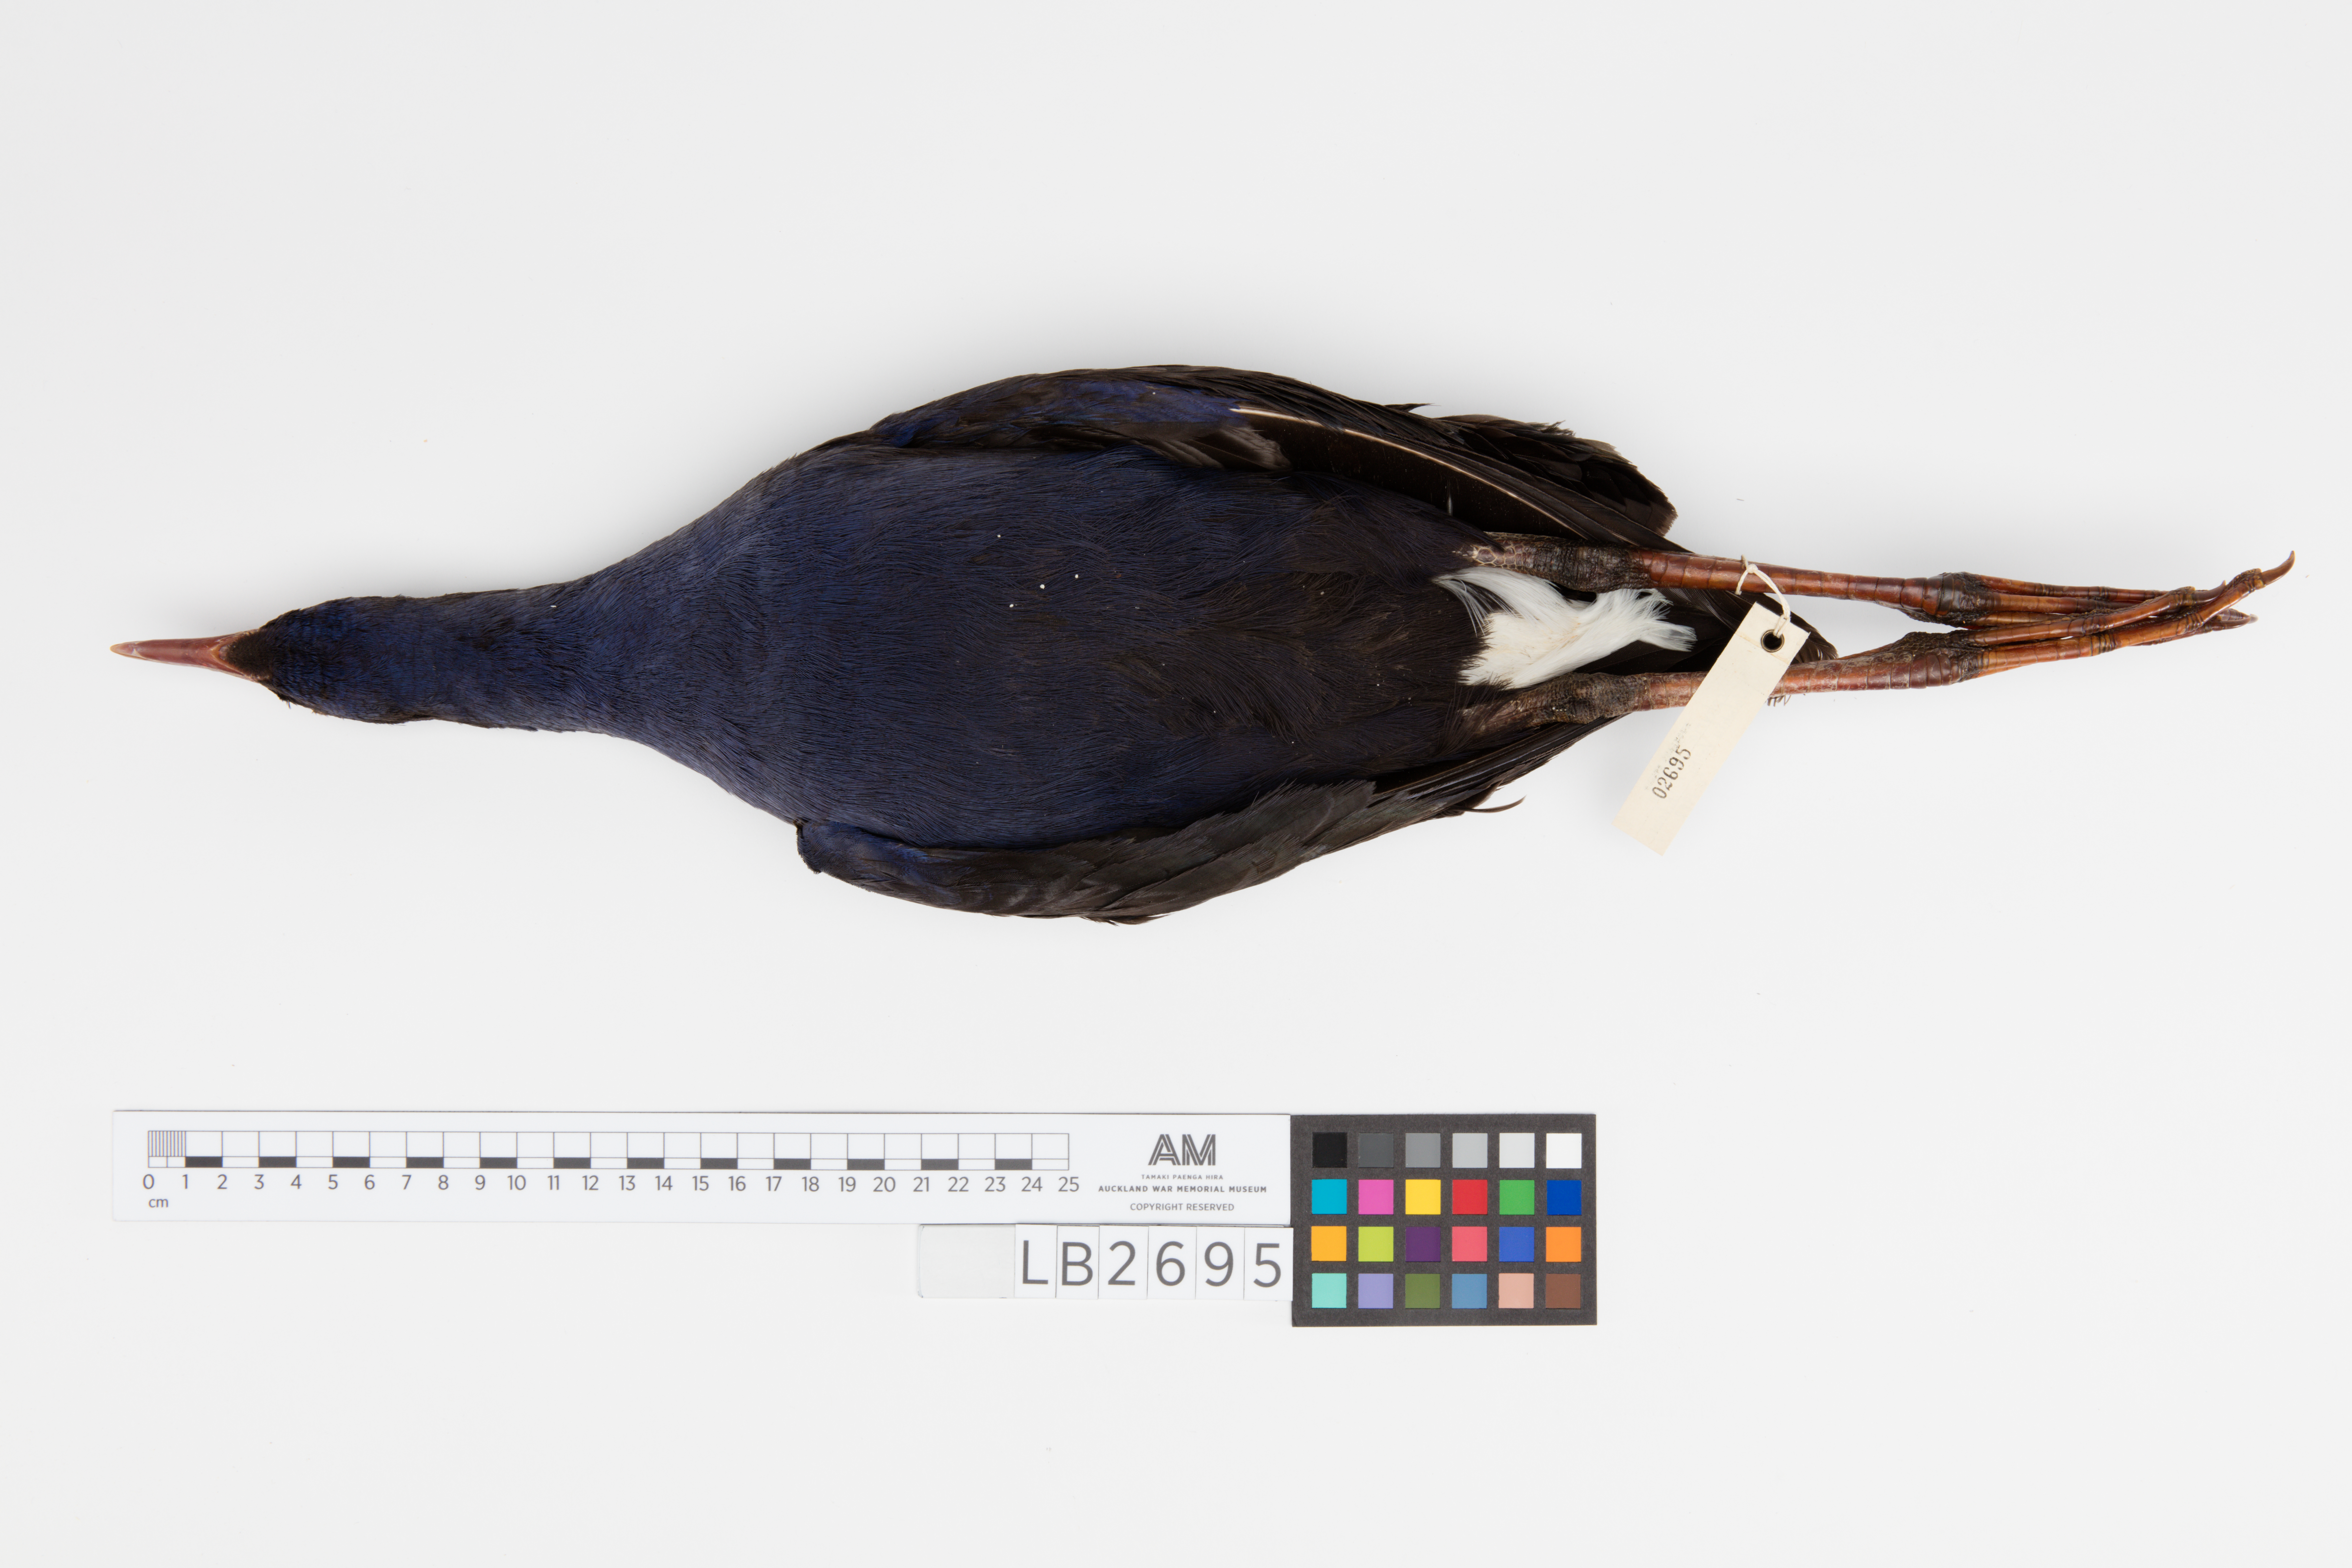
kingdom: Animalia
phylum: Chordata
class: Aves
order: Gruiformes
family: Rallidae
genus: Porphyrio
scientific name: Porphyrio melanotus
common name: Australasian swamphen
